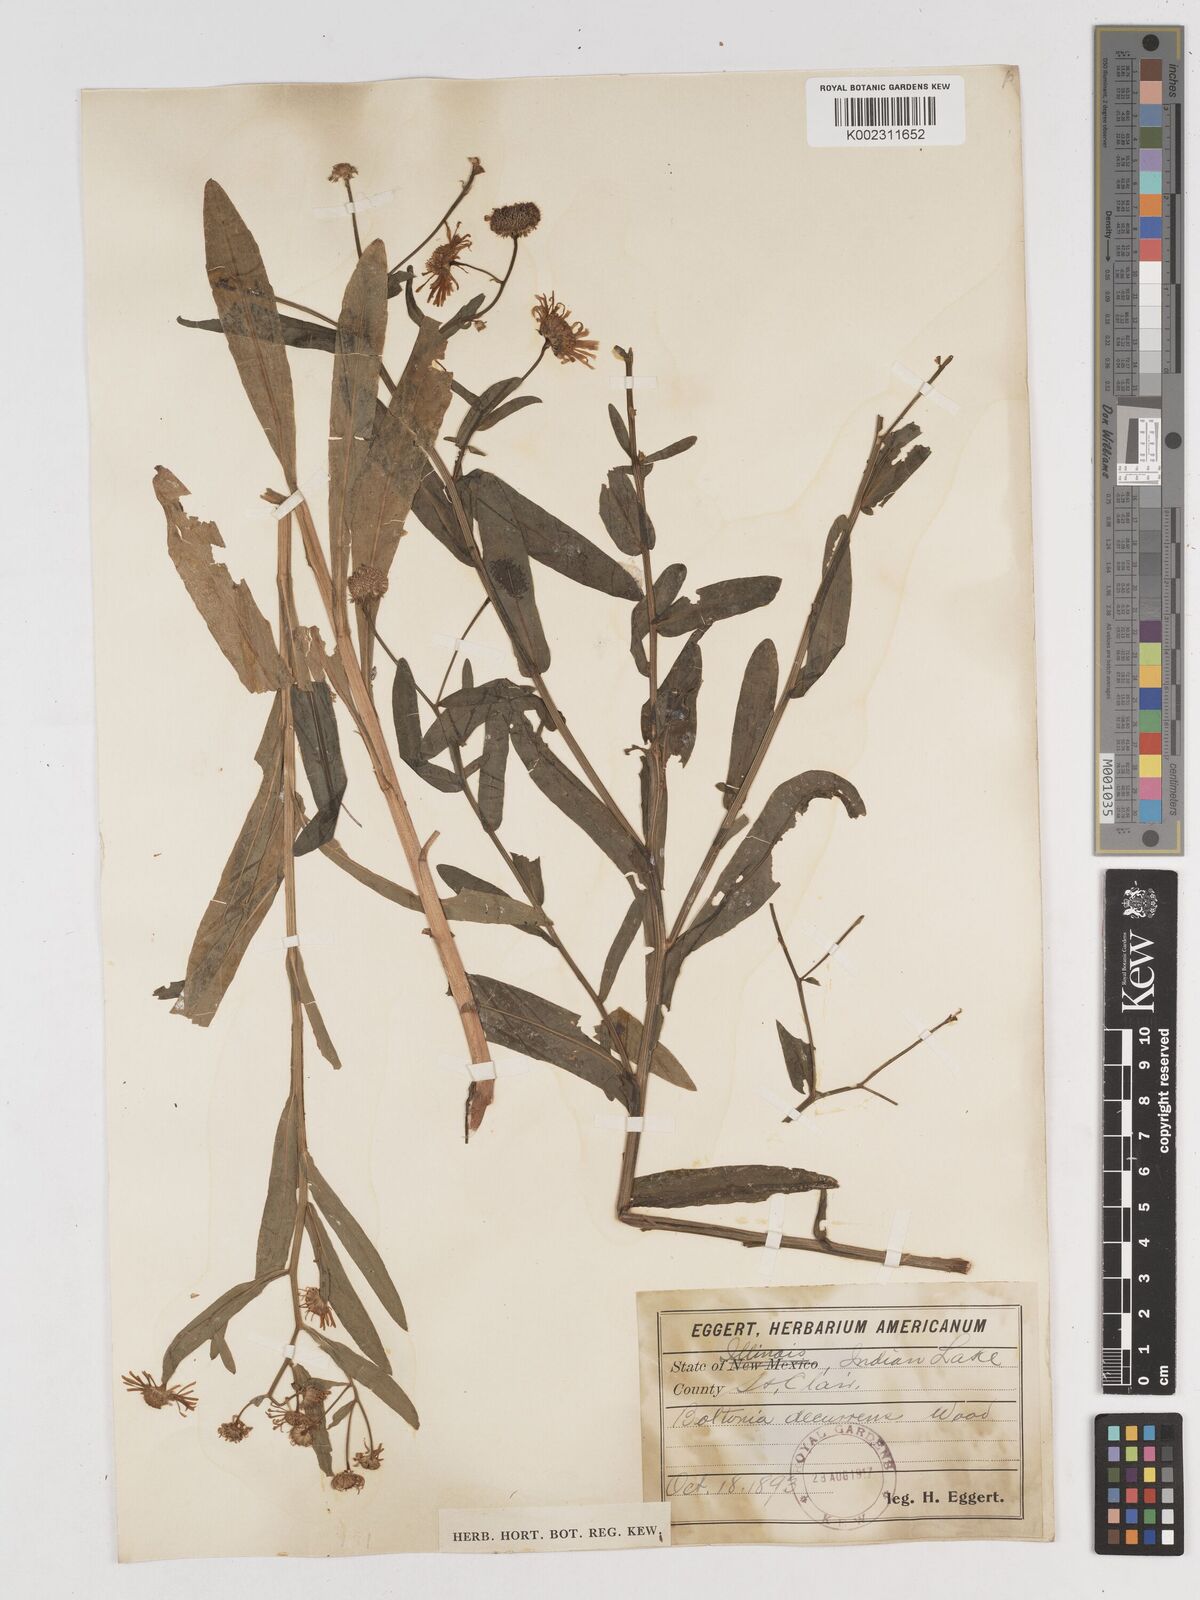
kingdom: Plantae
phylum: Tracheophyta
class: Magnoliopsida
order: Asterales
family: Asteraceae
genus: Boltonia
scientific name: Boltonia decurrens
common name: Decurrent false aster
